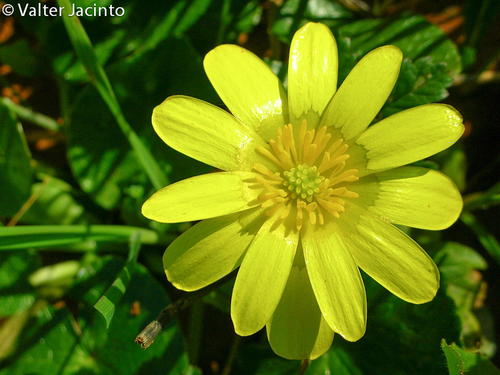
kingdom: Plantae
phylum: Tracheophyta
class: Magnoliopsida
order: Ranunculales
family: Ranunculaceae
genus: Ficaria
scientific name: Ficaria verna
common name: Lesser celandine
